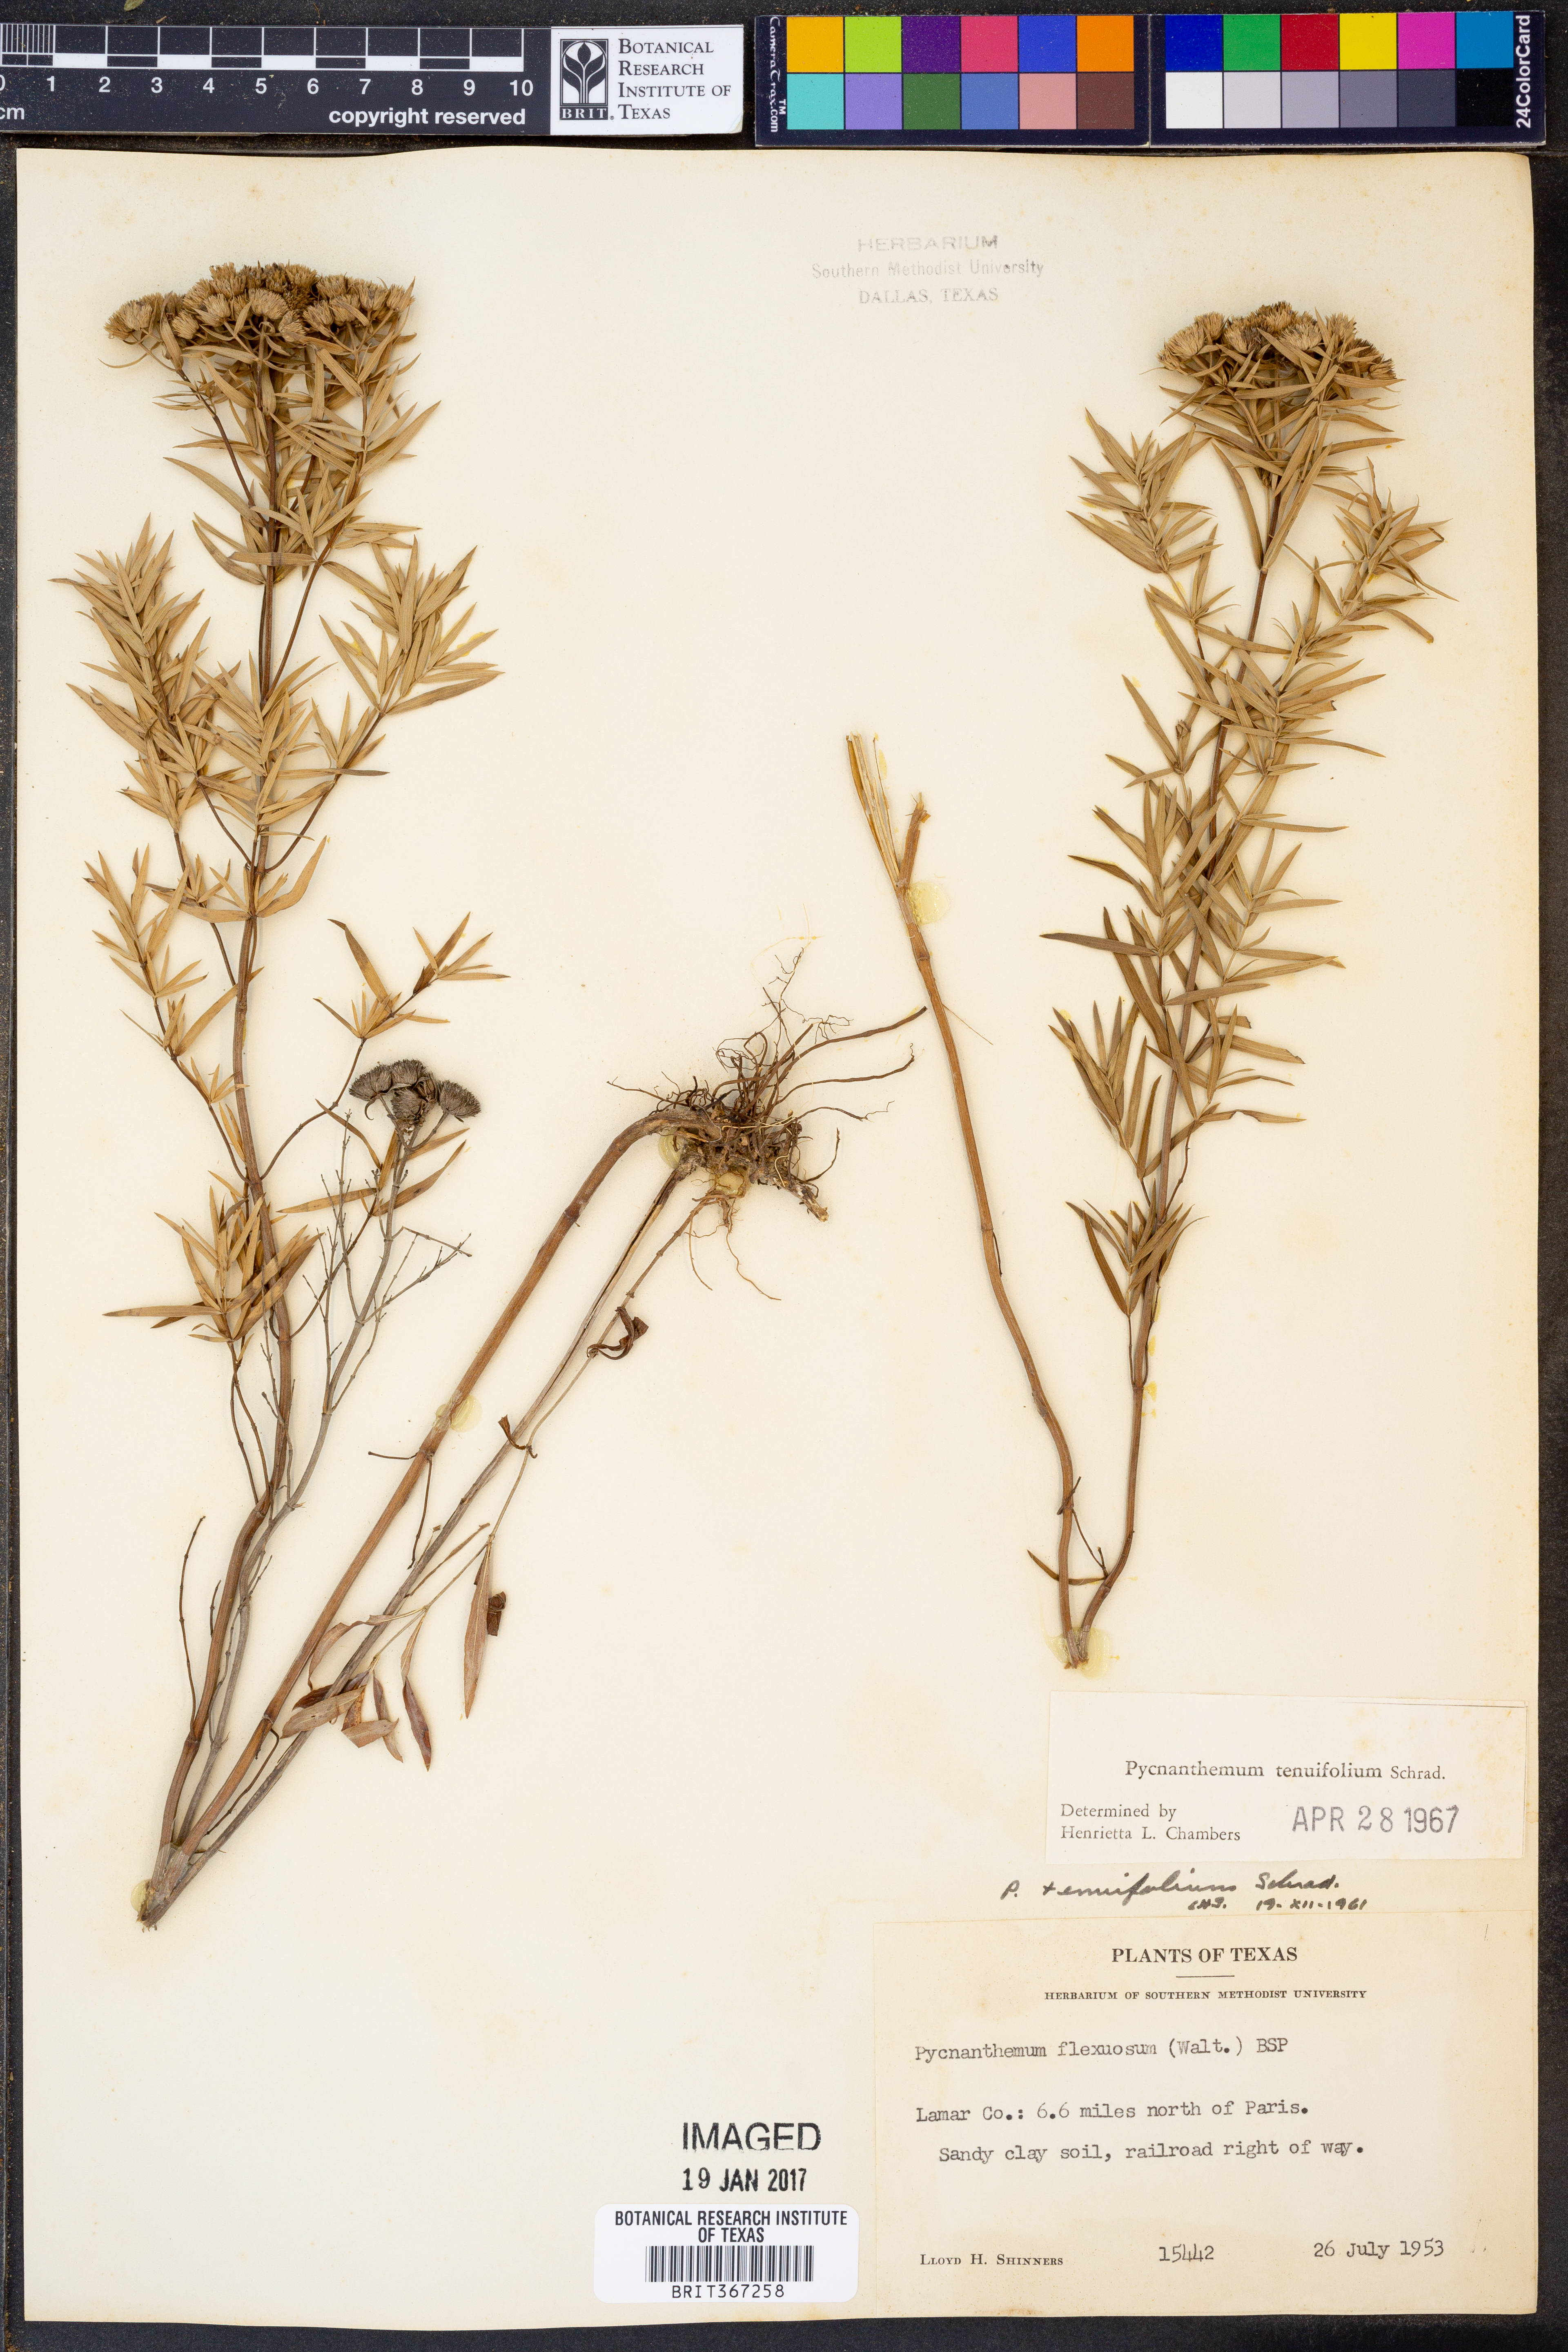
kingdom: Plantae
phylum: Tracheophyta
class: Magnoliopsida
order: Lamiales
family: Lamiaceae
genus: Pycnanthemum
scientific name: Pycnanthemum tenuifolium
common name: Narrow-leaf mountain-mint
